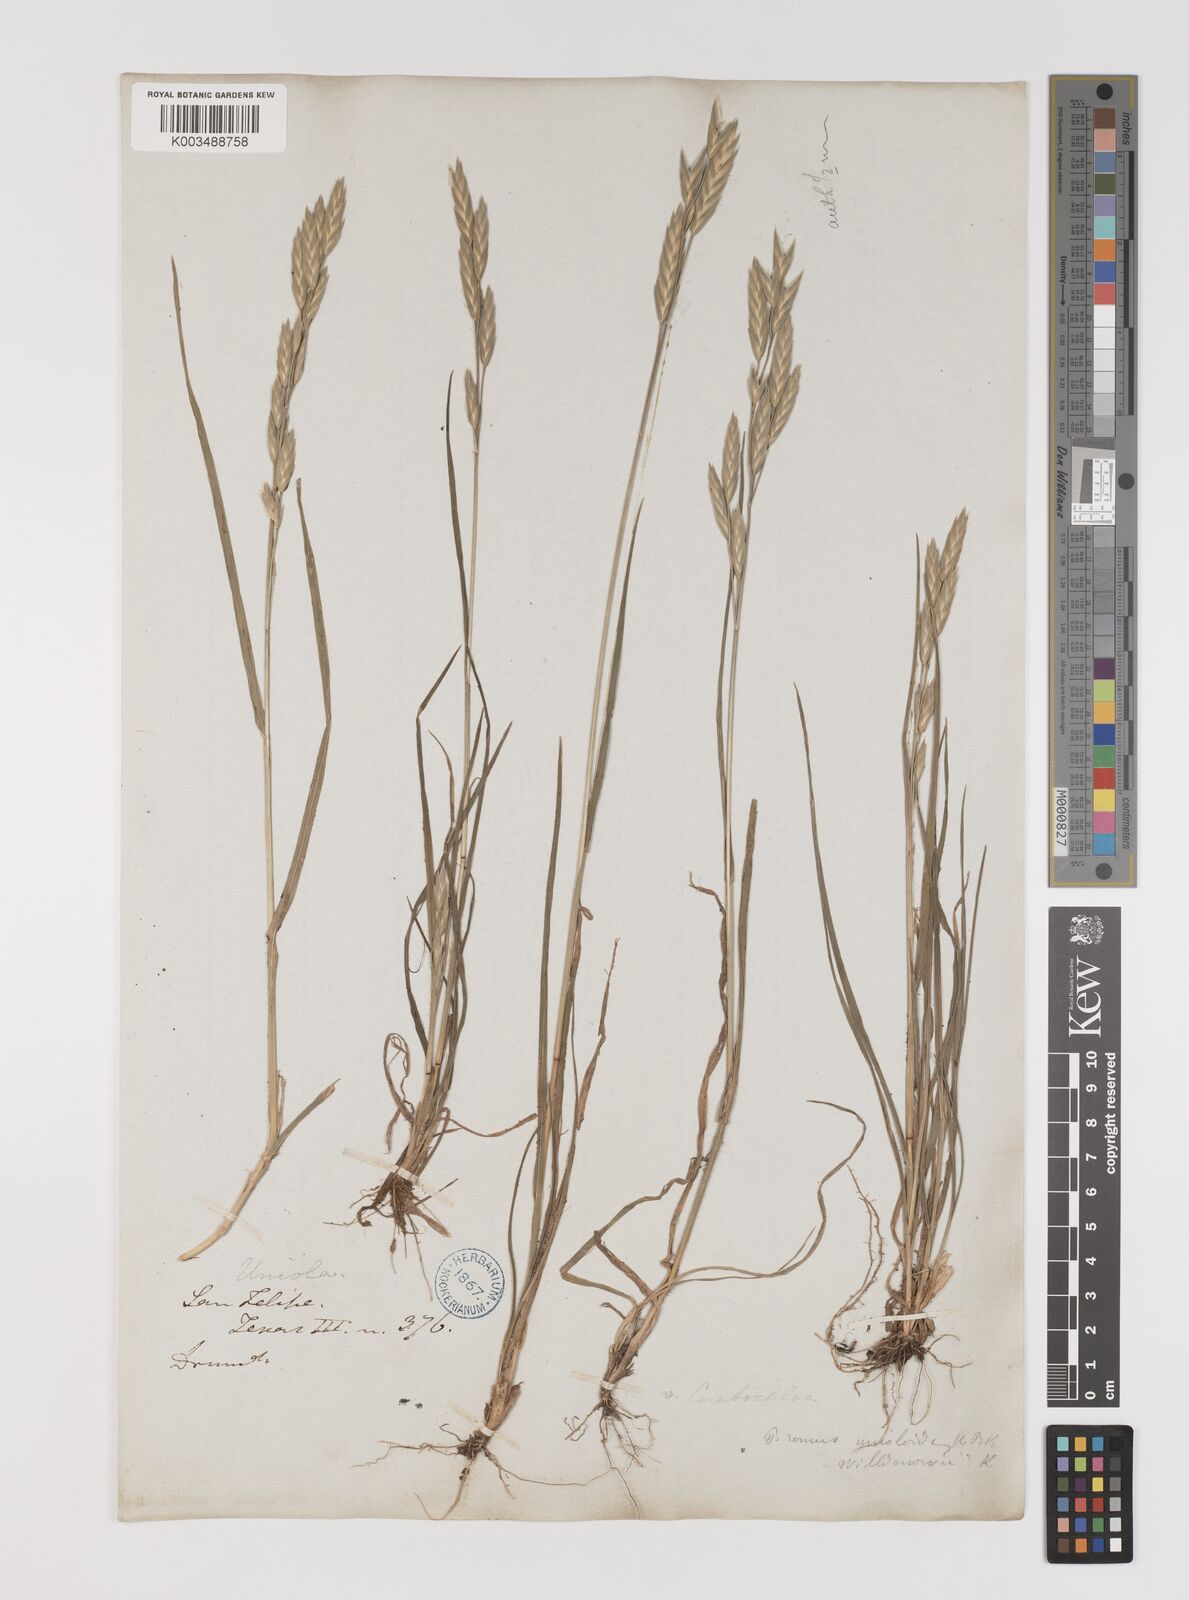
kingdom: Plantae
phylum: Tracheophyta
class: Liliopsida
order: Poales
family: Poaceae
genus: Bromus
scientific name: Bromus
